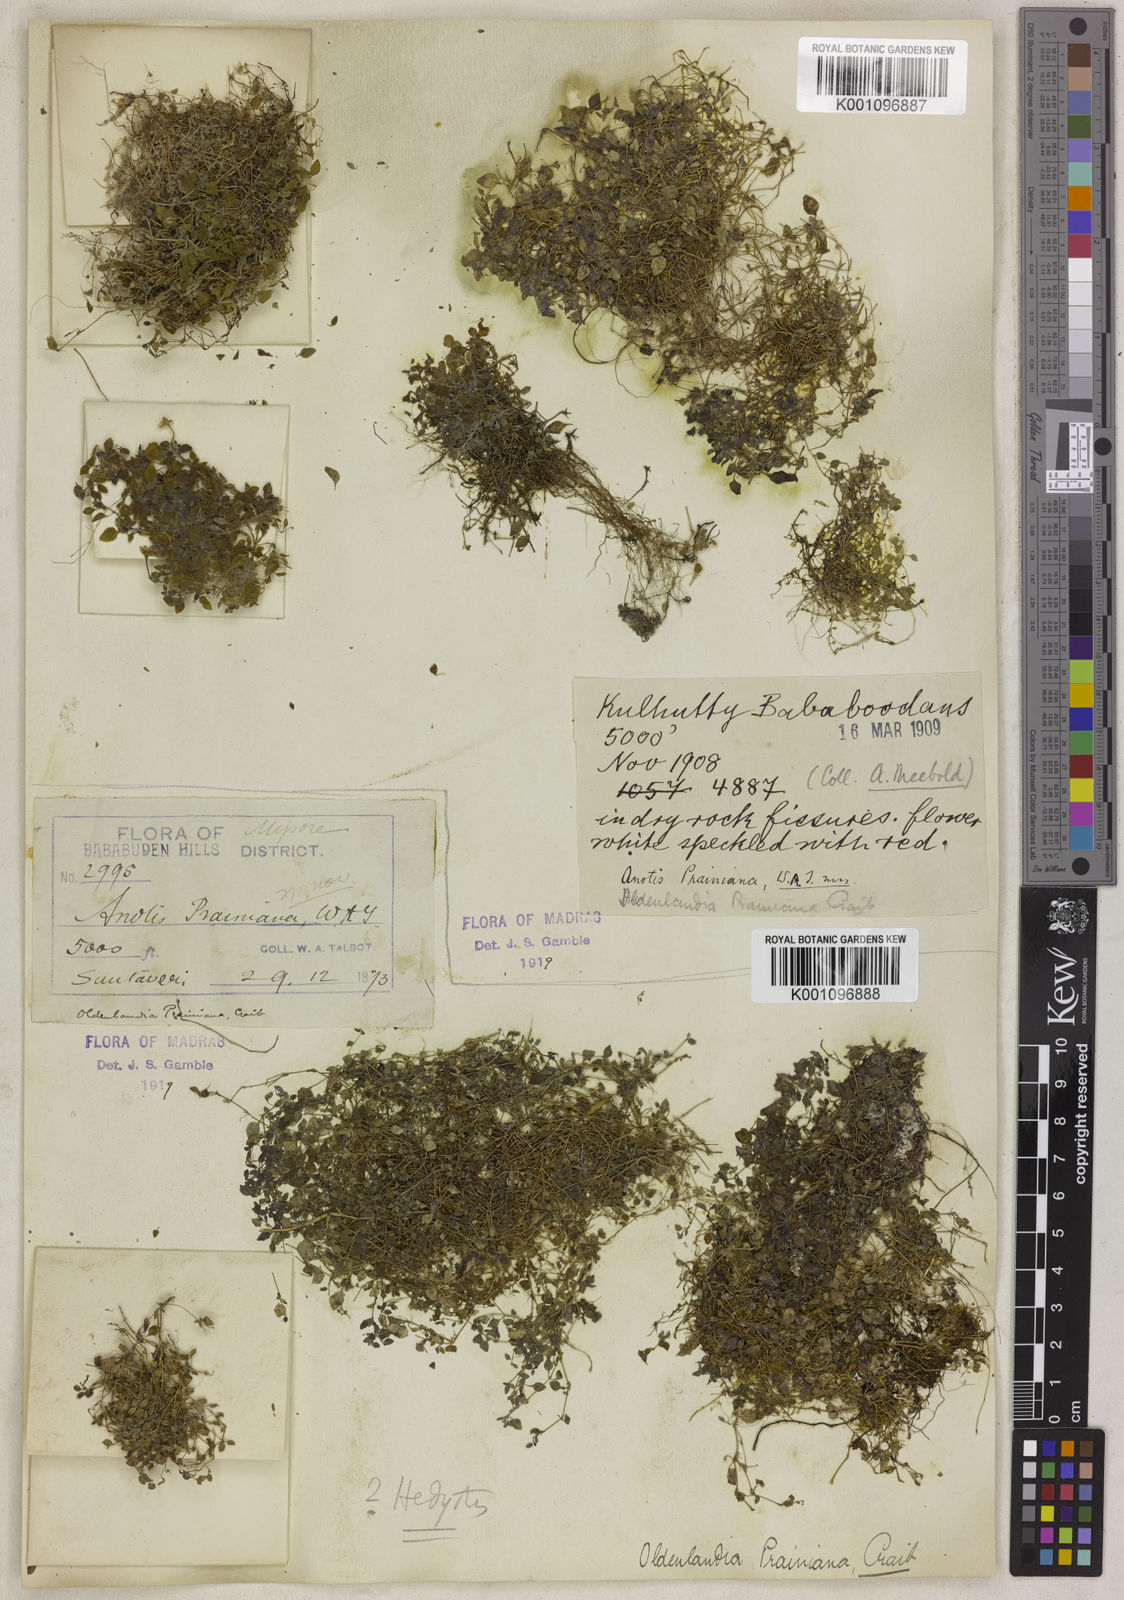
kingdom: Plantae
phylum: Tracheophyta
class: Magnoliopsida
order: Gentianales
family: Rubiaceae
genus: Neanotis
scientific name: Neanotis prainiana
